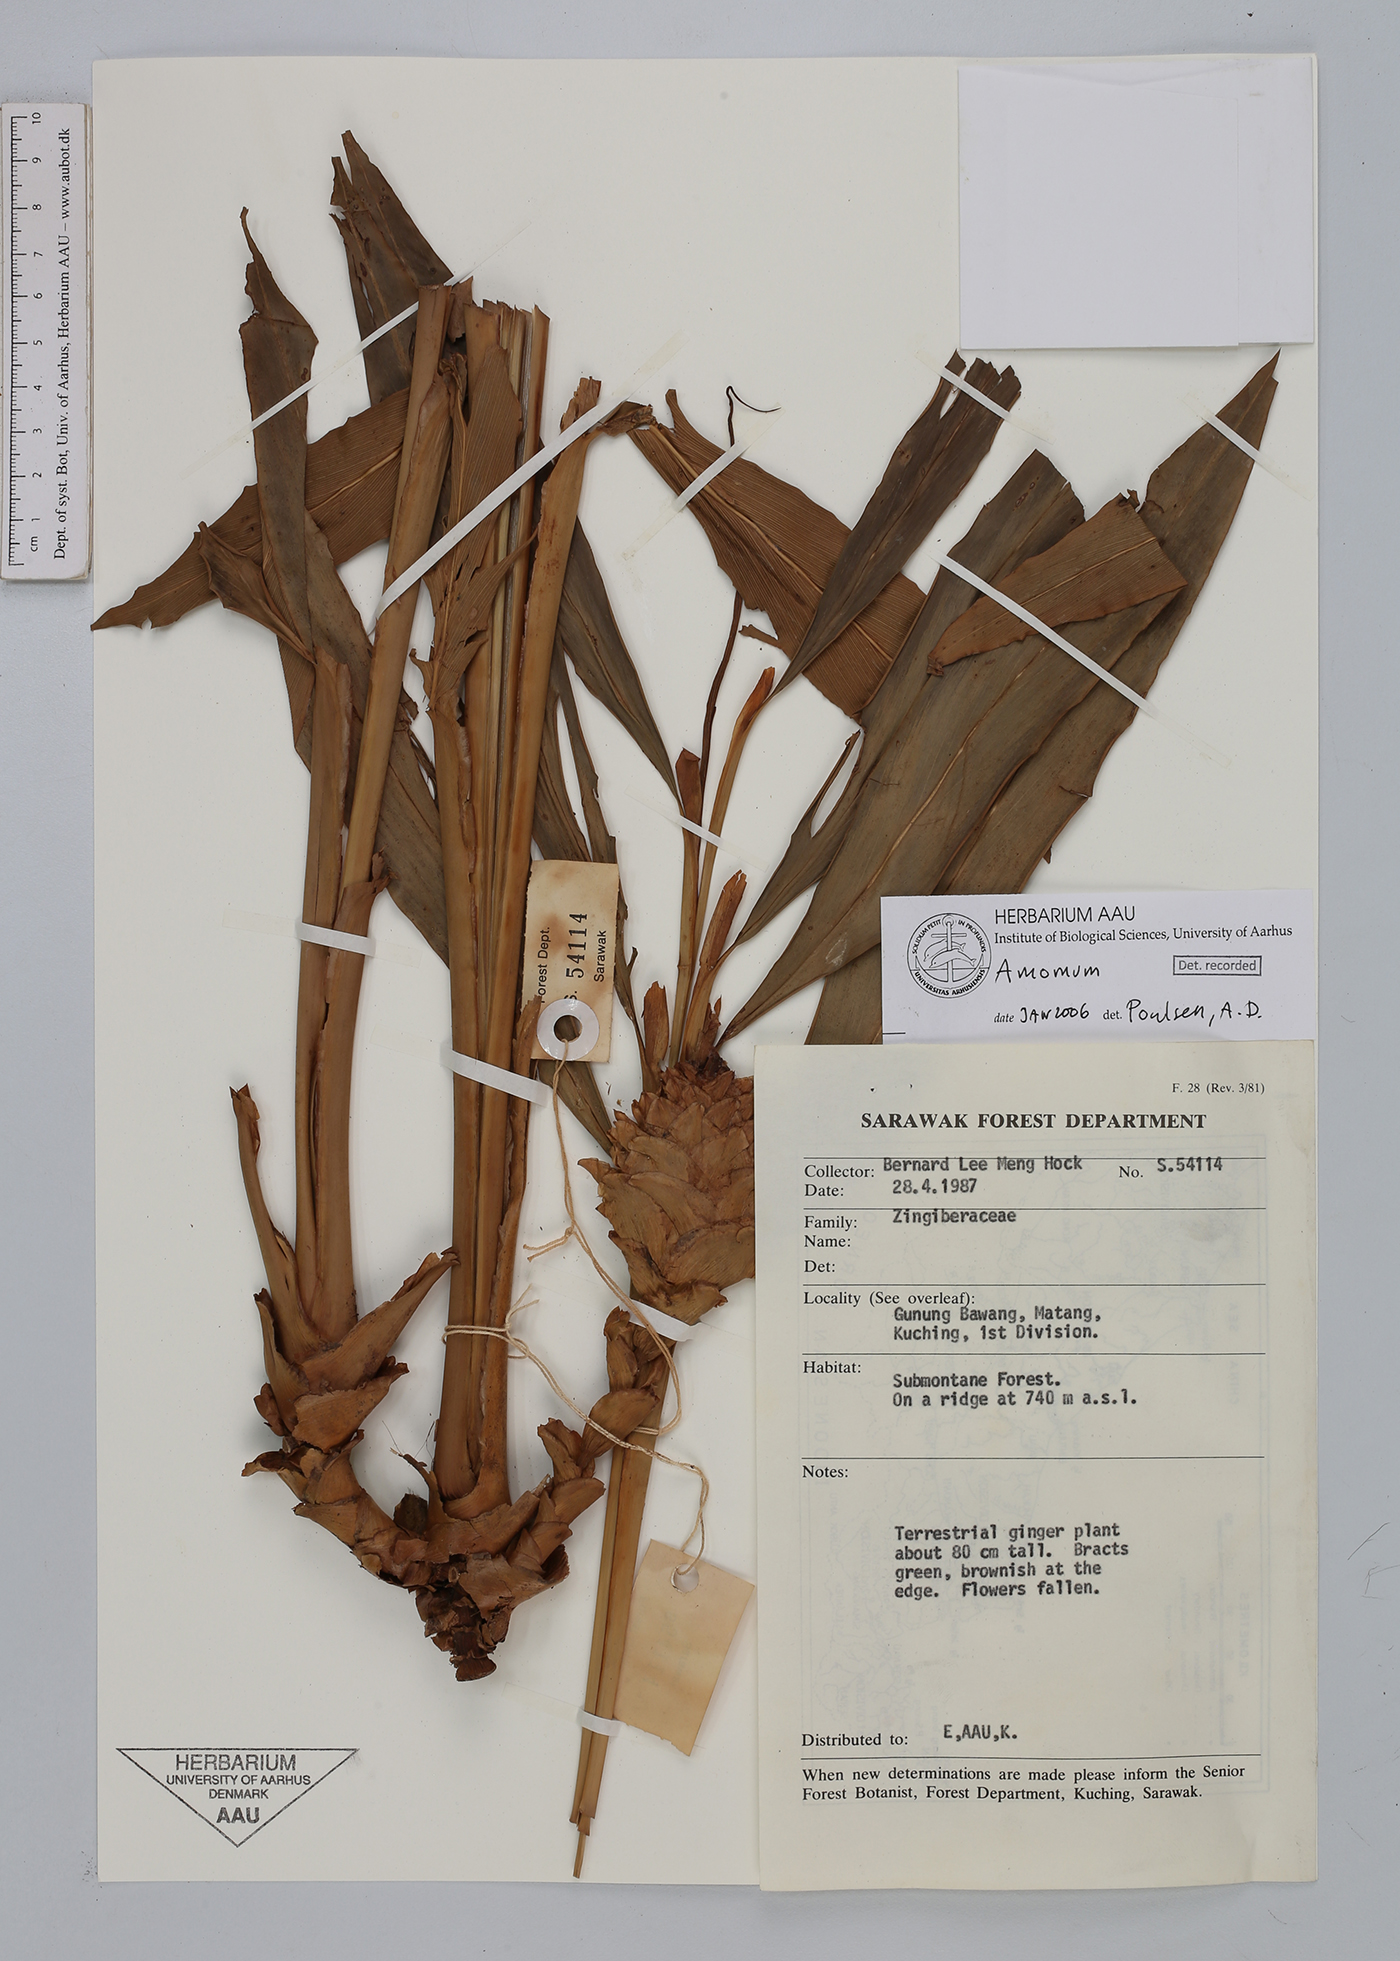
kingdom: Plantae
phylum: Tracheophyta
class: Liliopsida
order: Zingiberales
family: Zingiberaceae
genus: Amomum
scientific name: Amomum
